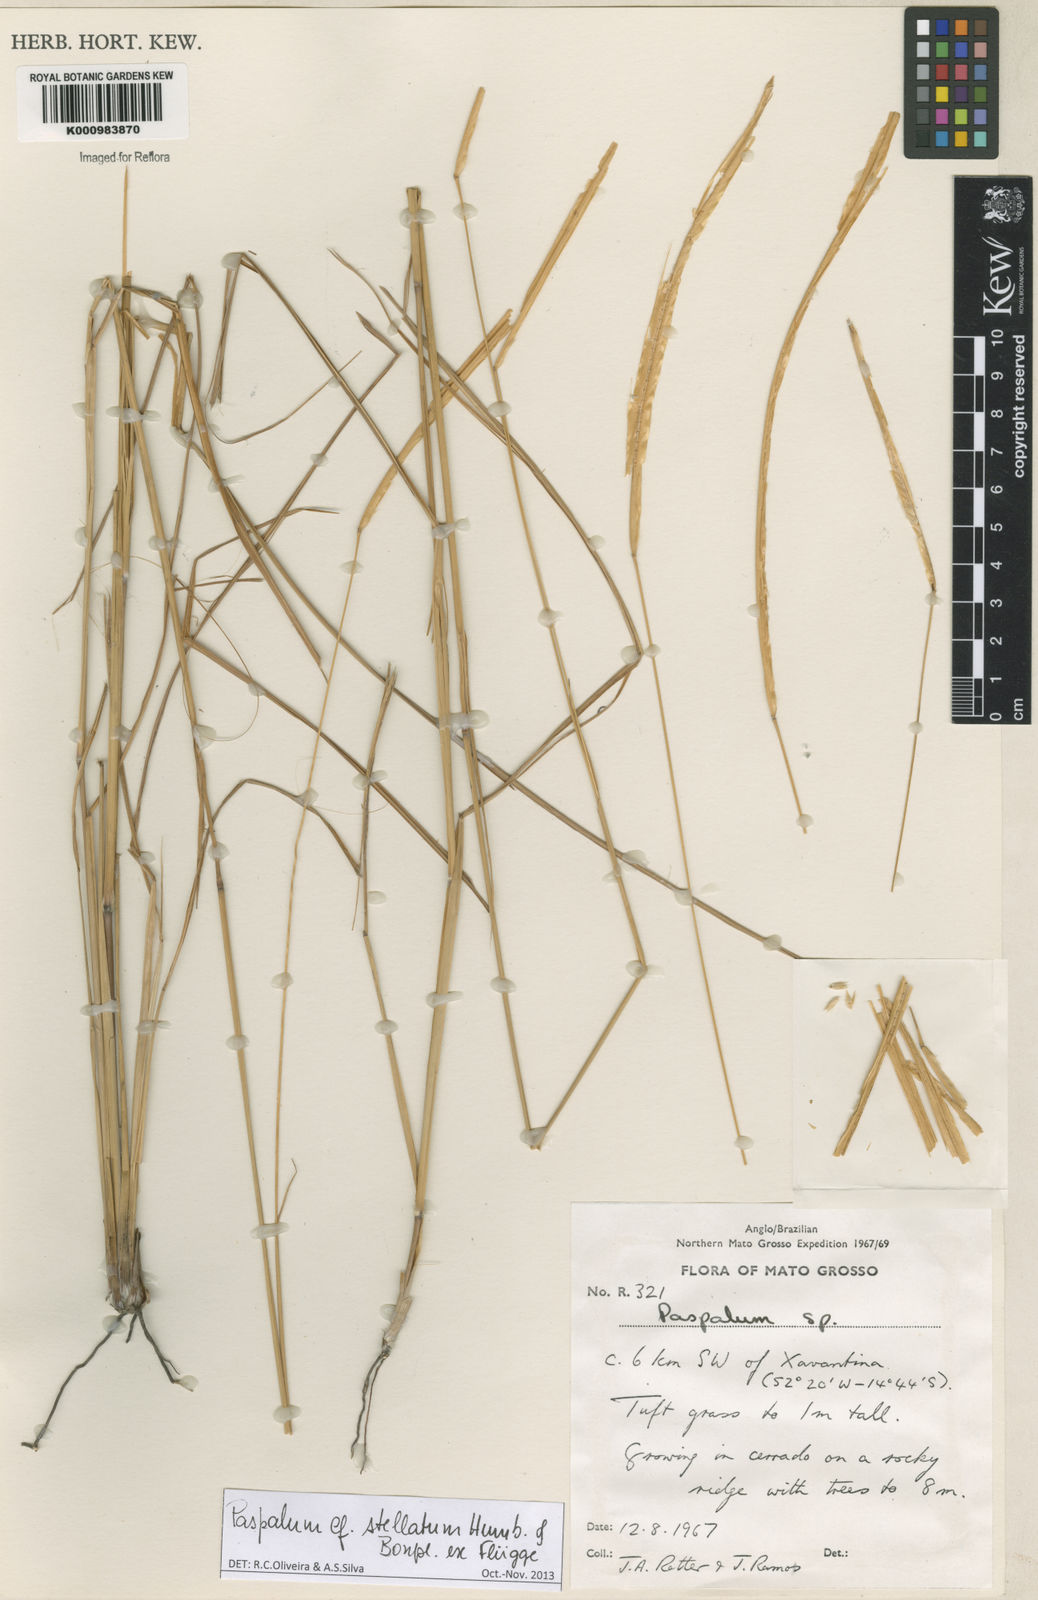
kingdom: Plantae
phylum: Tracheophyta
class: Liliopsida
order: Poales
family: Poaceae
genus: Paspalum
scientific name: Paspalum
